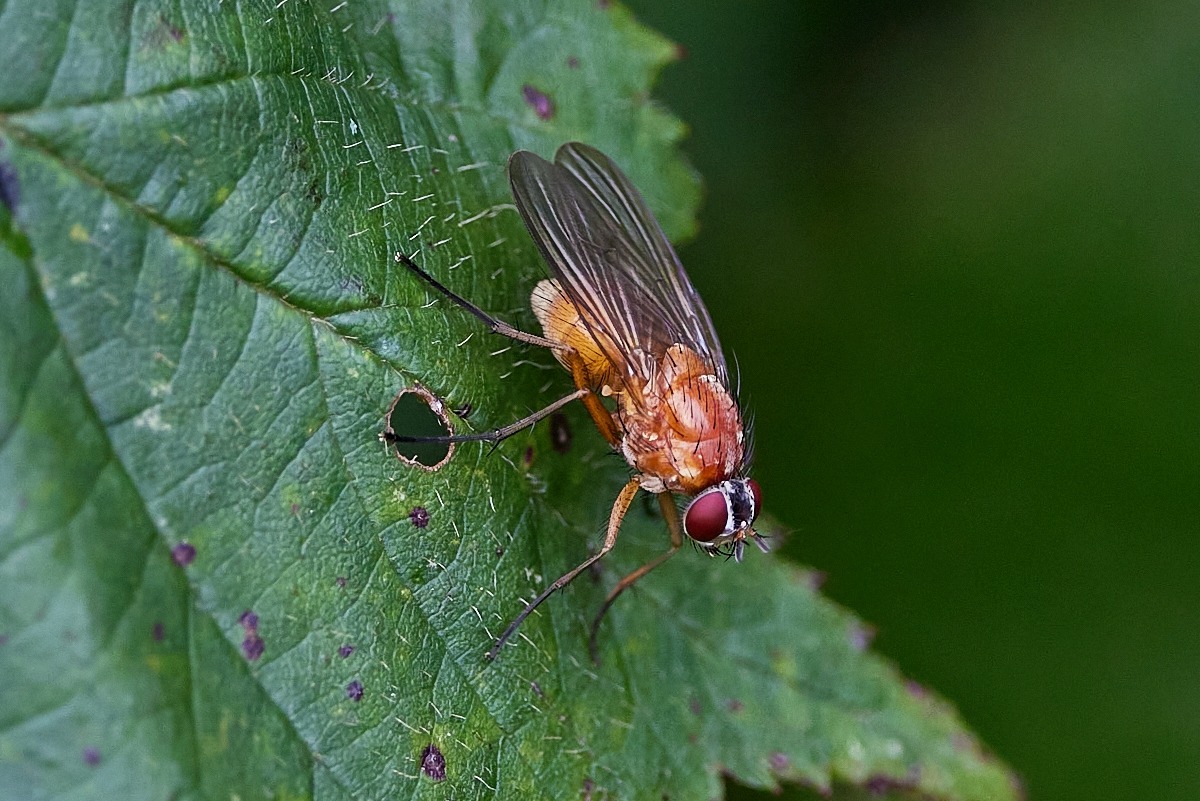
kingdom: Animalia
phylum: Arthropoda
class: Insecta
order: Diptera
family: Muscidae
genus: Thricops
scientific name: Thricops diaphanus
